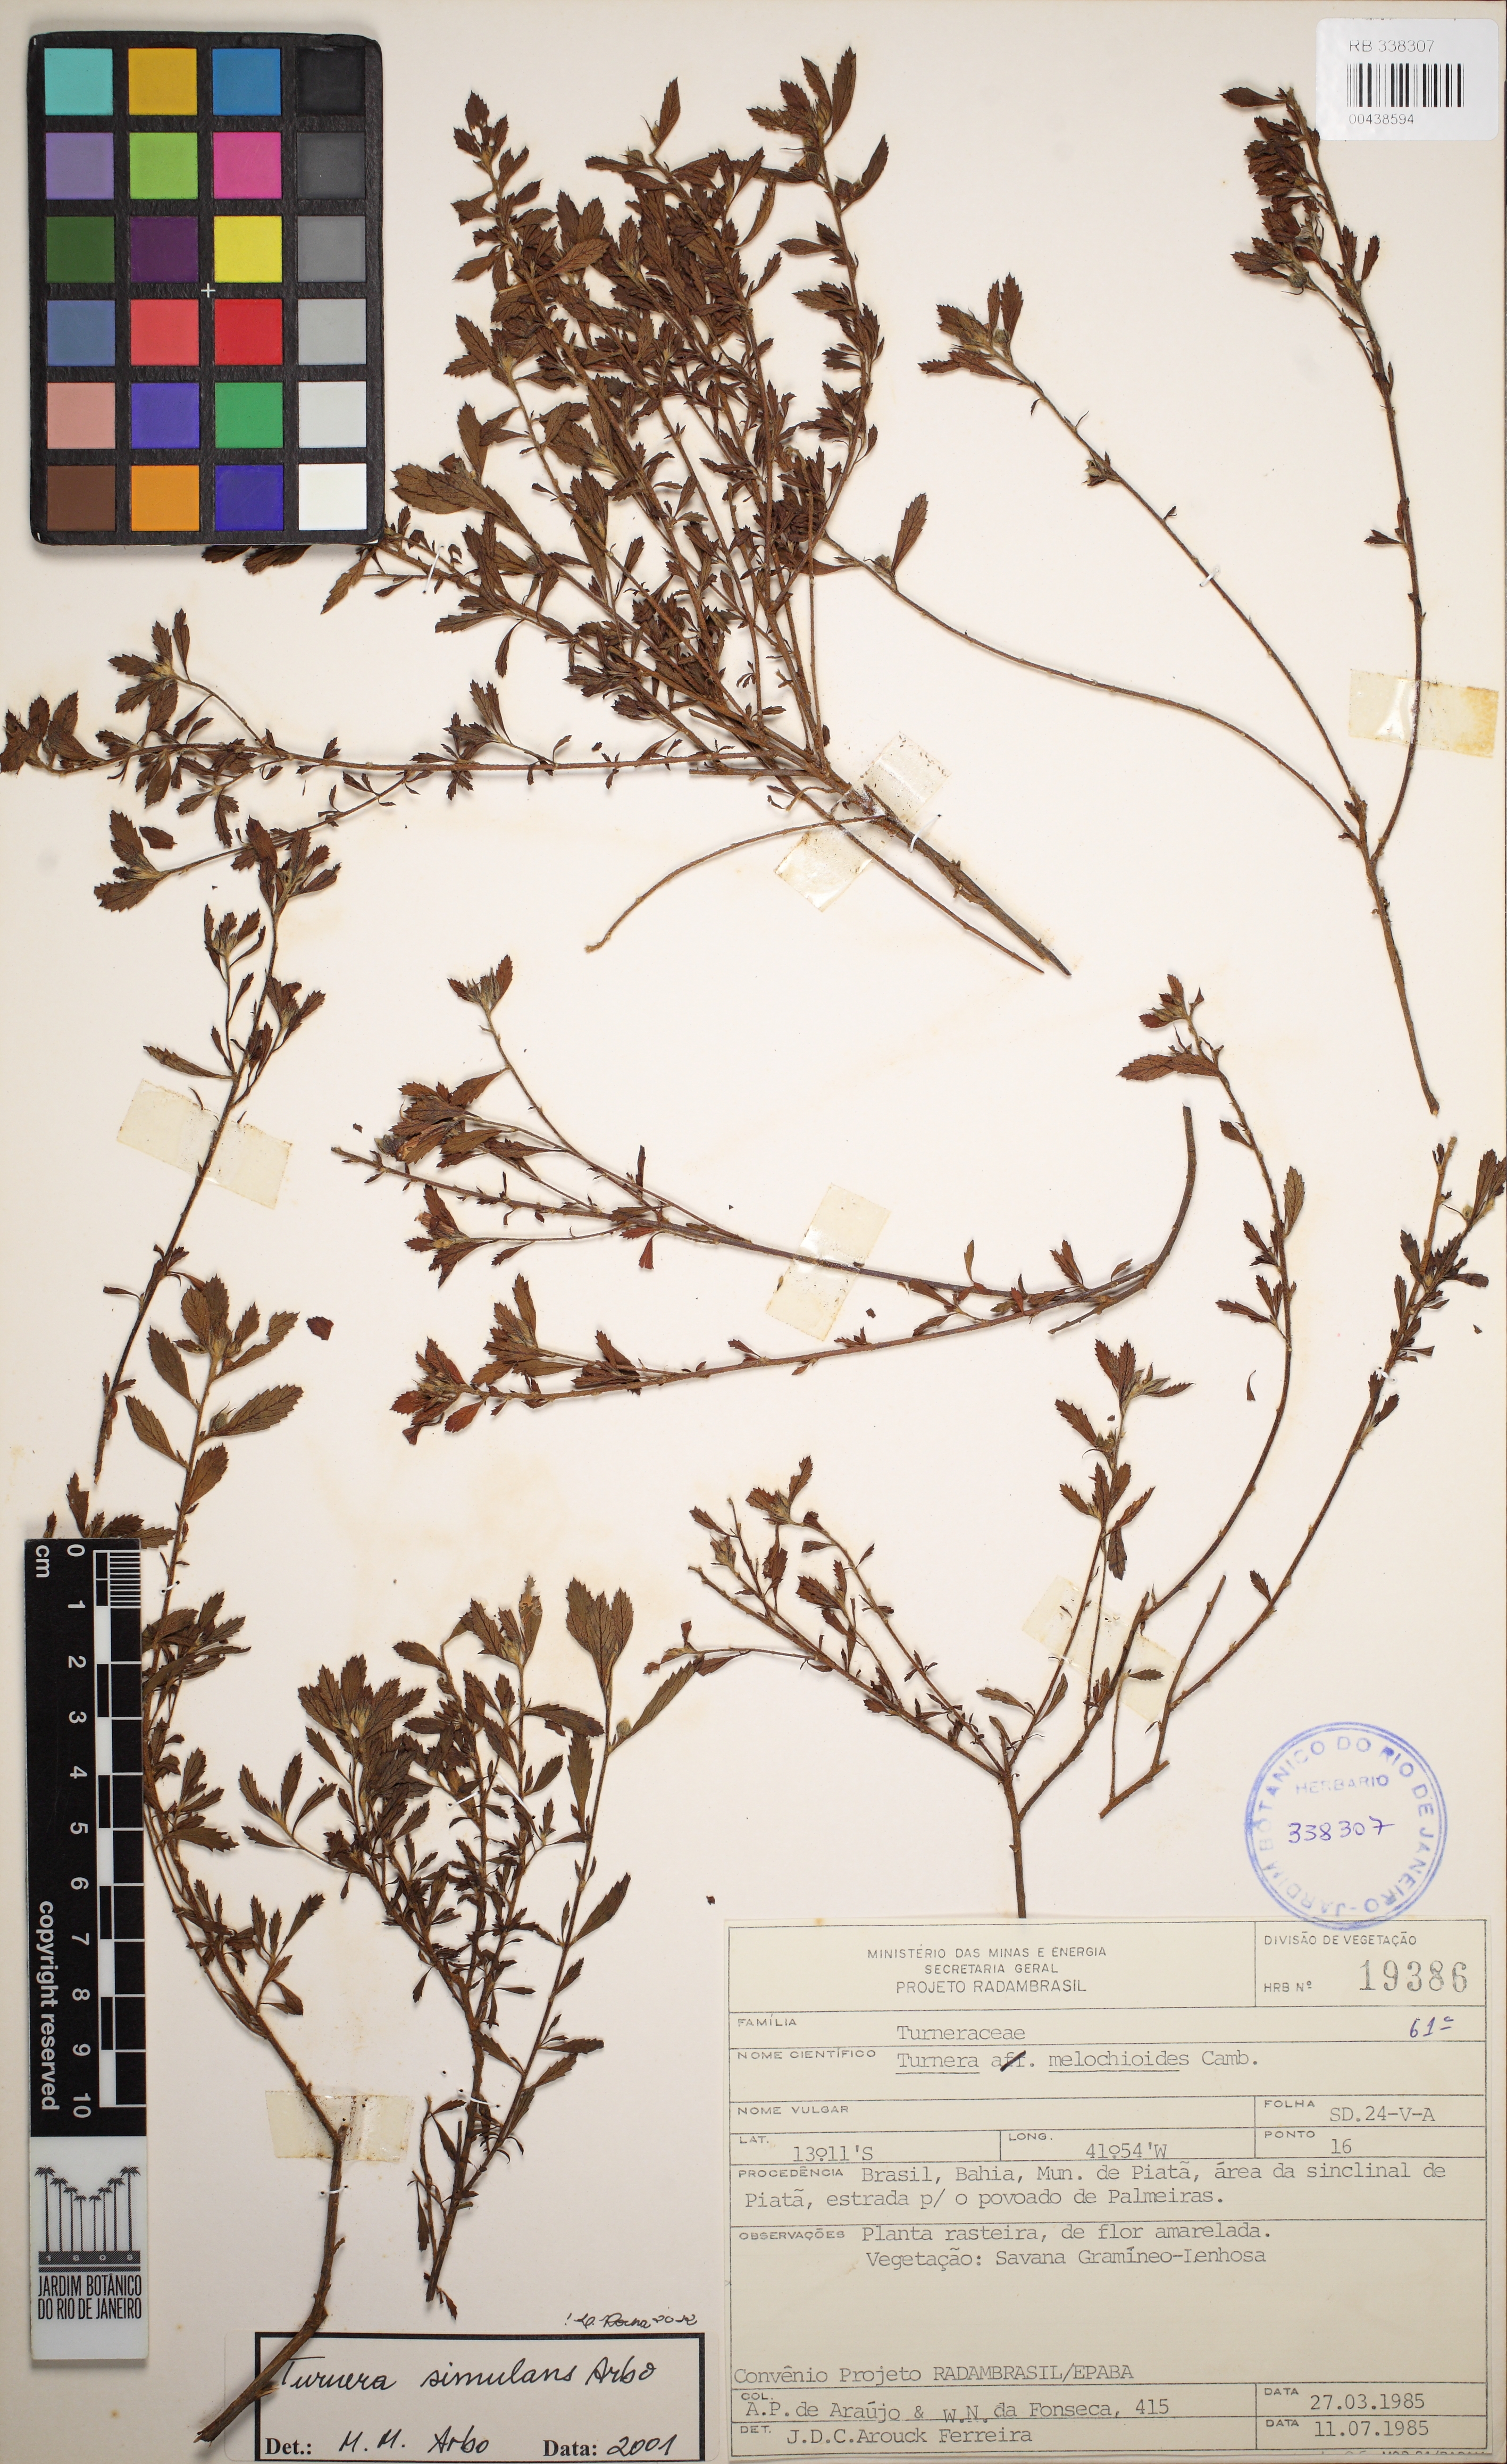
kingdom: Plantae
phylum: Tracheophyta
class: Magnoliopsida
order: Malpighiales
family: Turneraceae
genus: Turnera
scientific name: Turnera simulans
